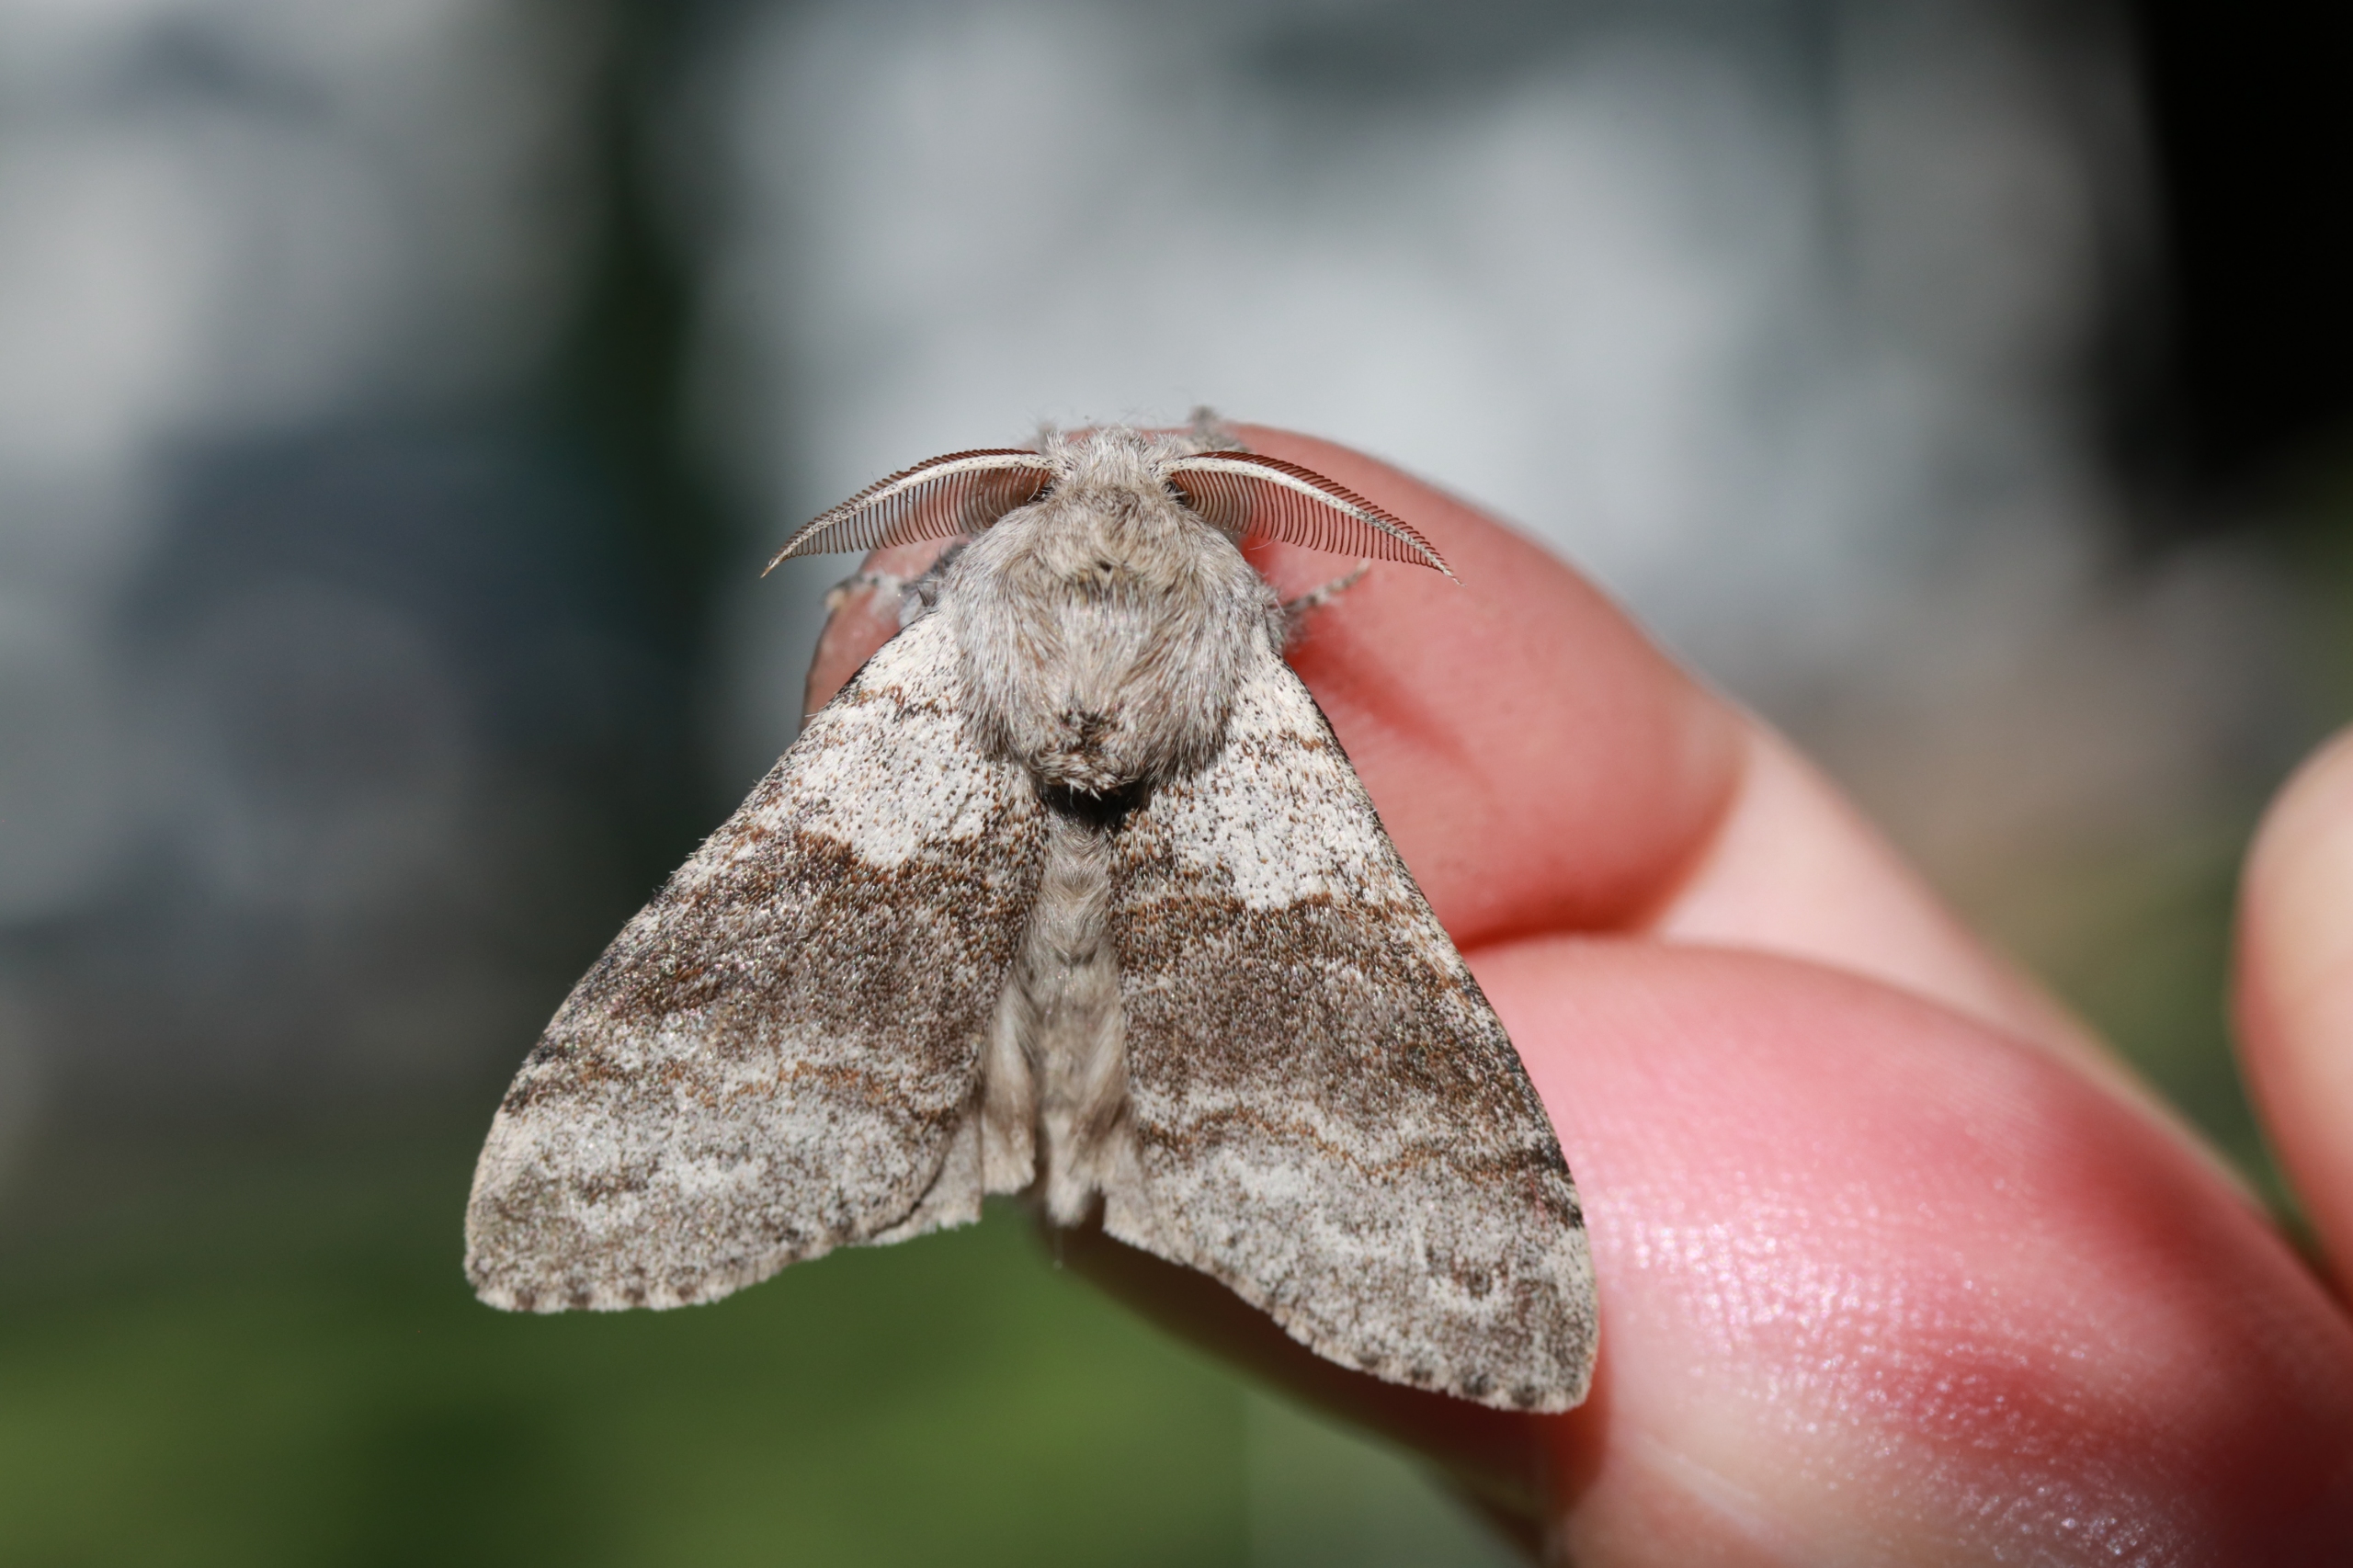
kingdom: Animalia
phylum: Arthropoda
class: Insecta
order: Lepidoptera
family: Erebidae
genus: Calliteara
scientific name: Calliteara pudibunda
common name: Bøgenonne
